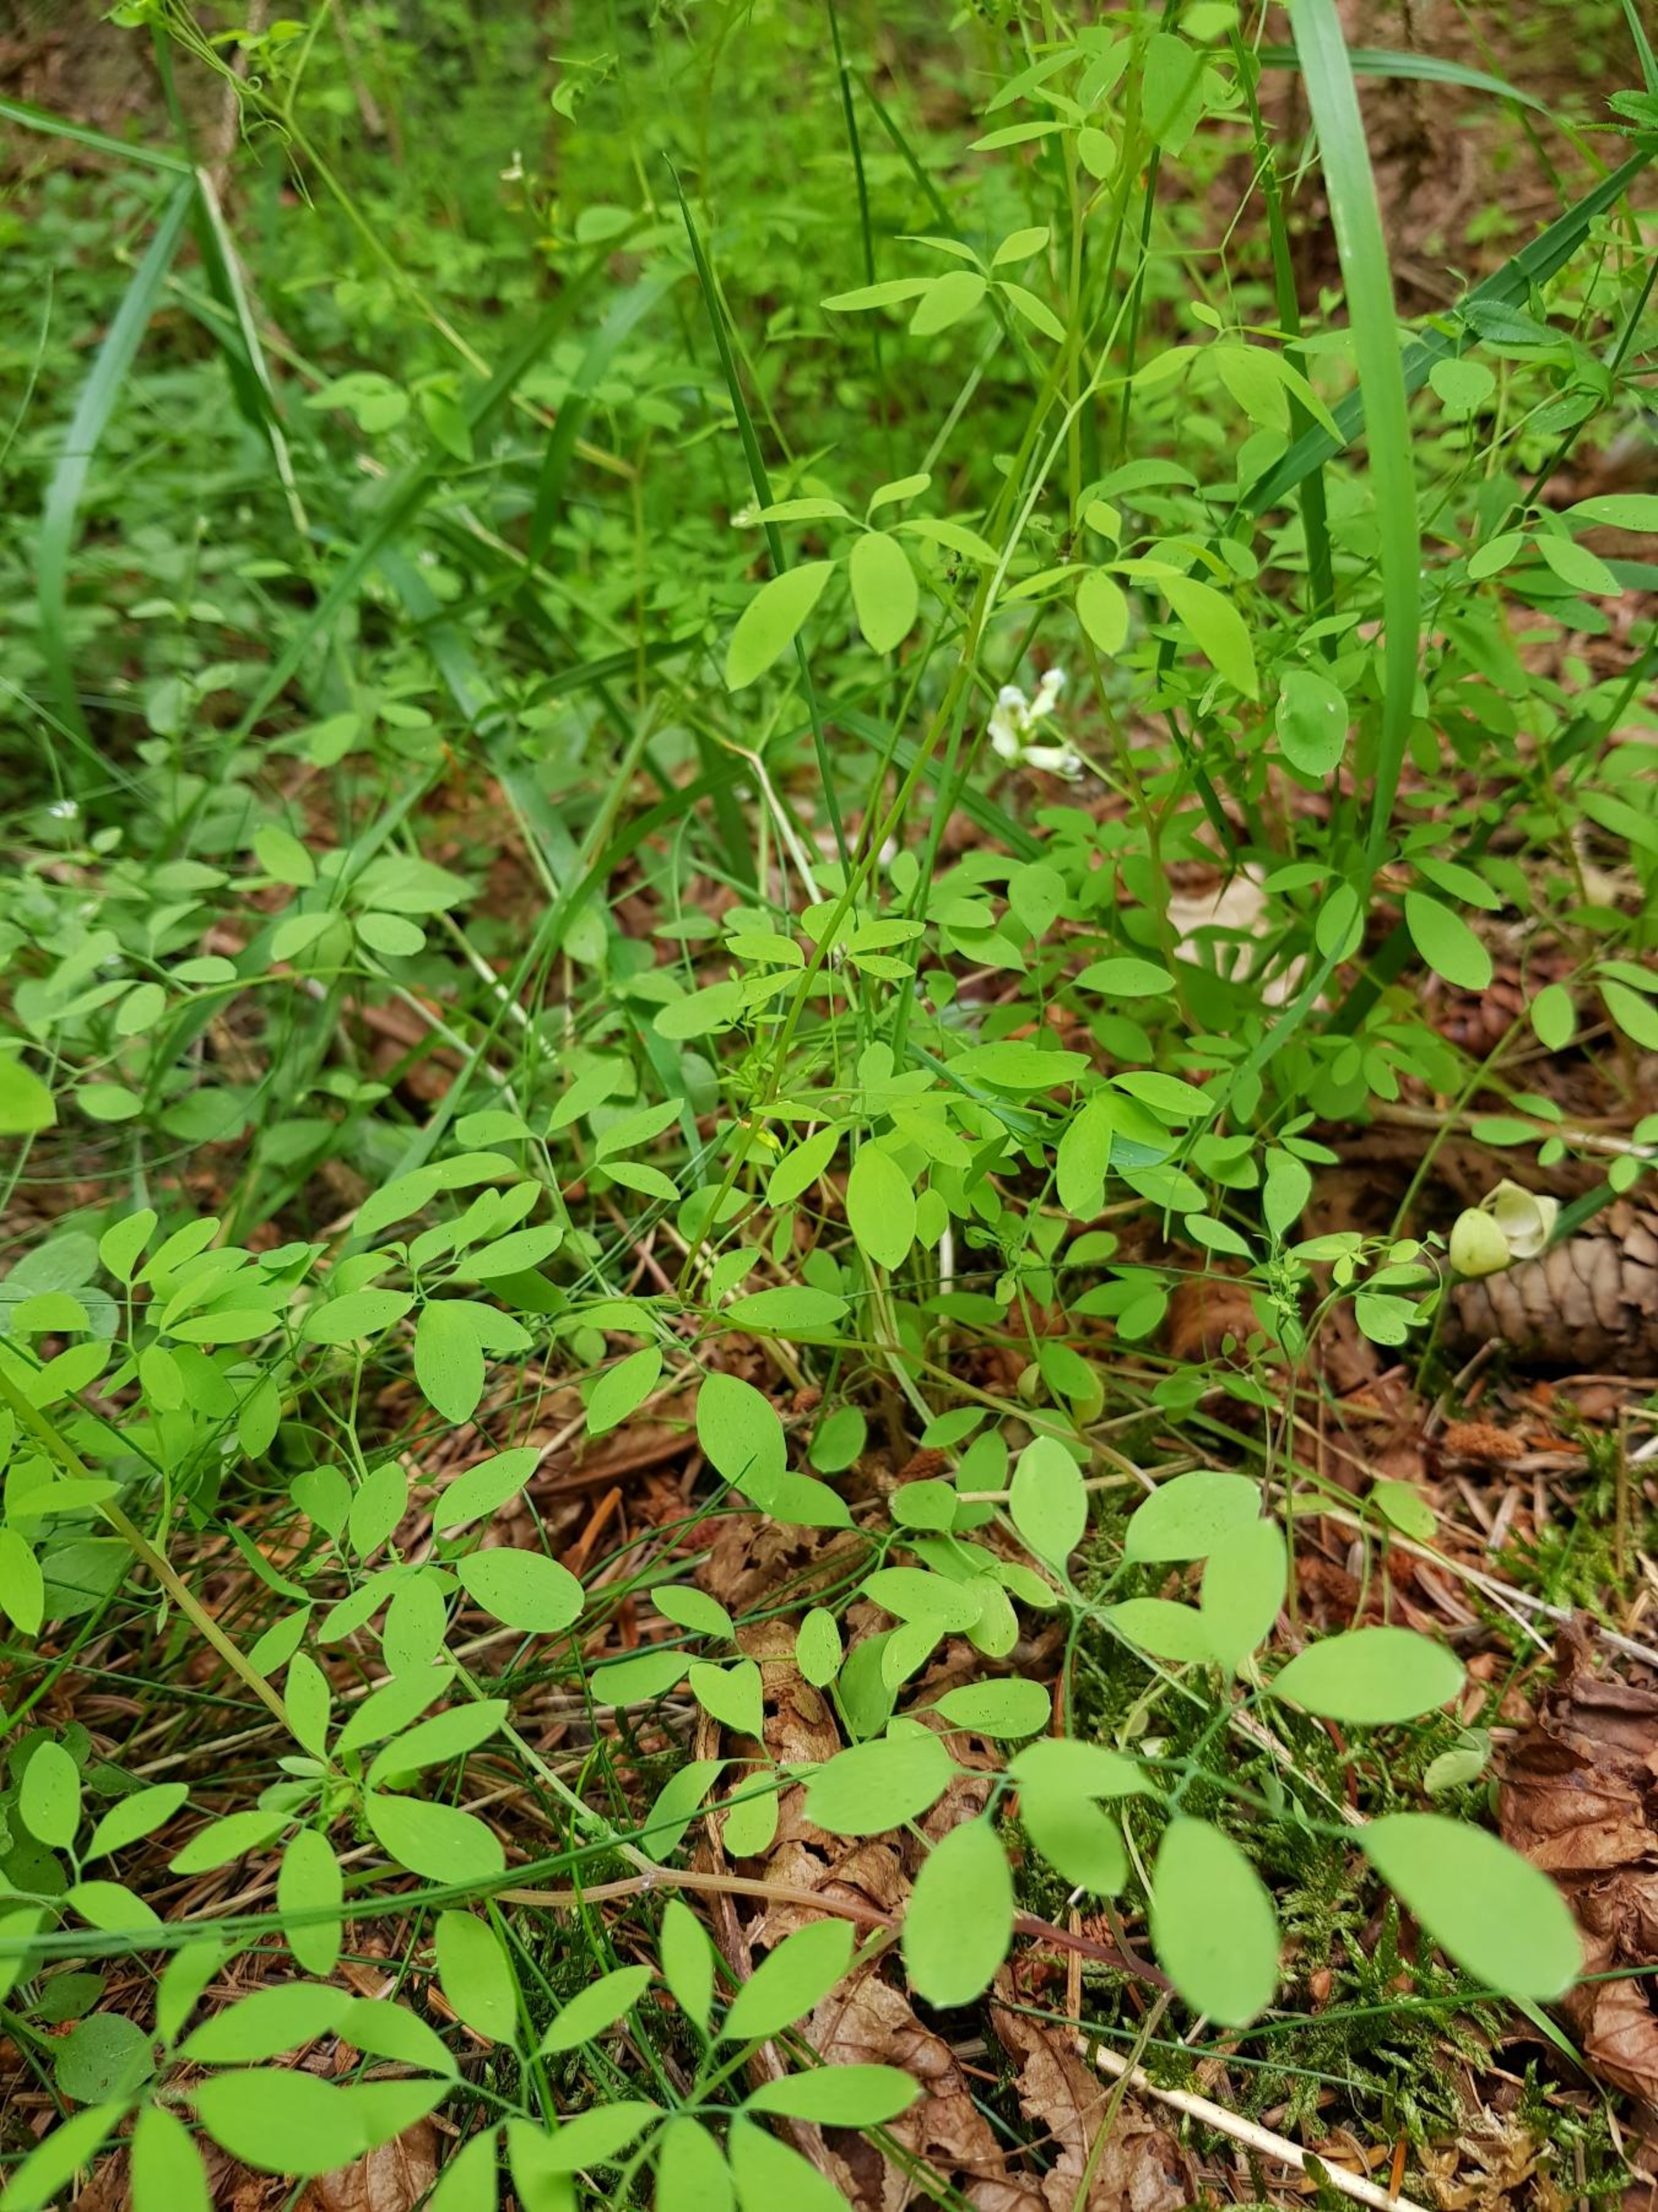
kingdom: Plantae
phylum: Tracheophyta
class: Magnoliopsida
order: Ranunculales
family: Papaveraceae
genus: Ceratocapnos
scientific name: Ceratocapnos claviculata
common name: Klatrende lærkespore
